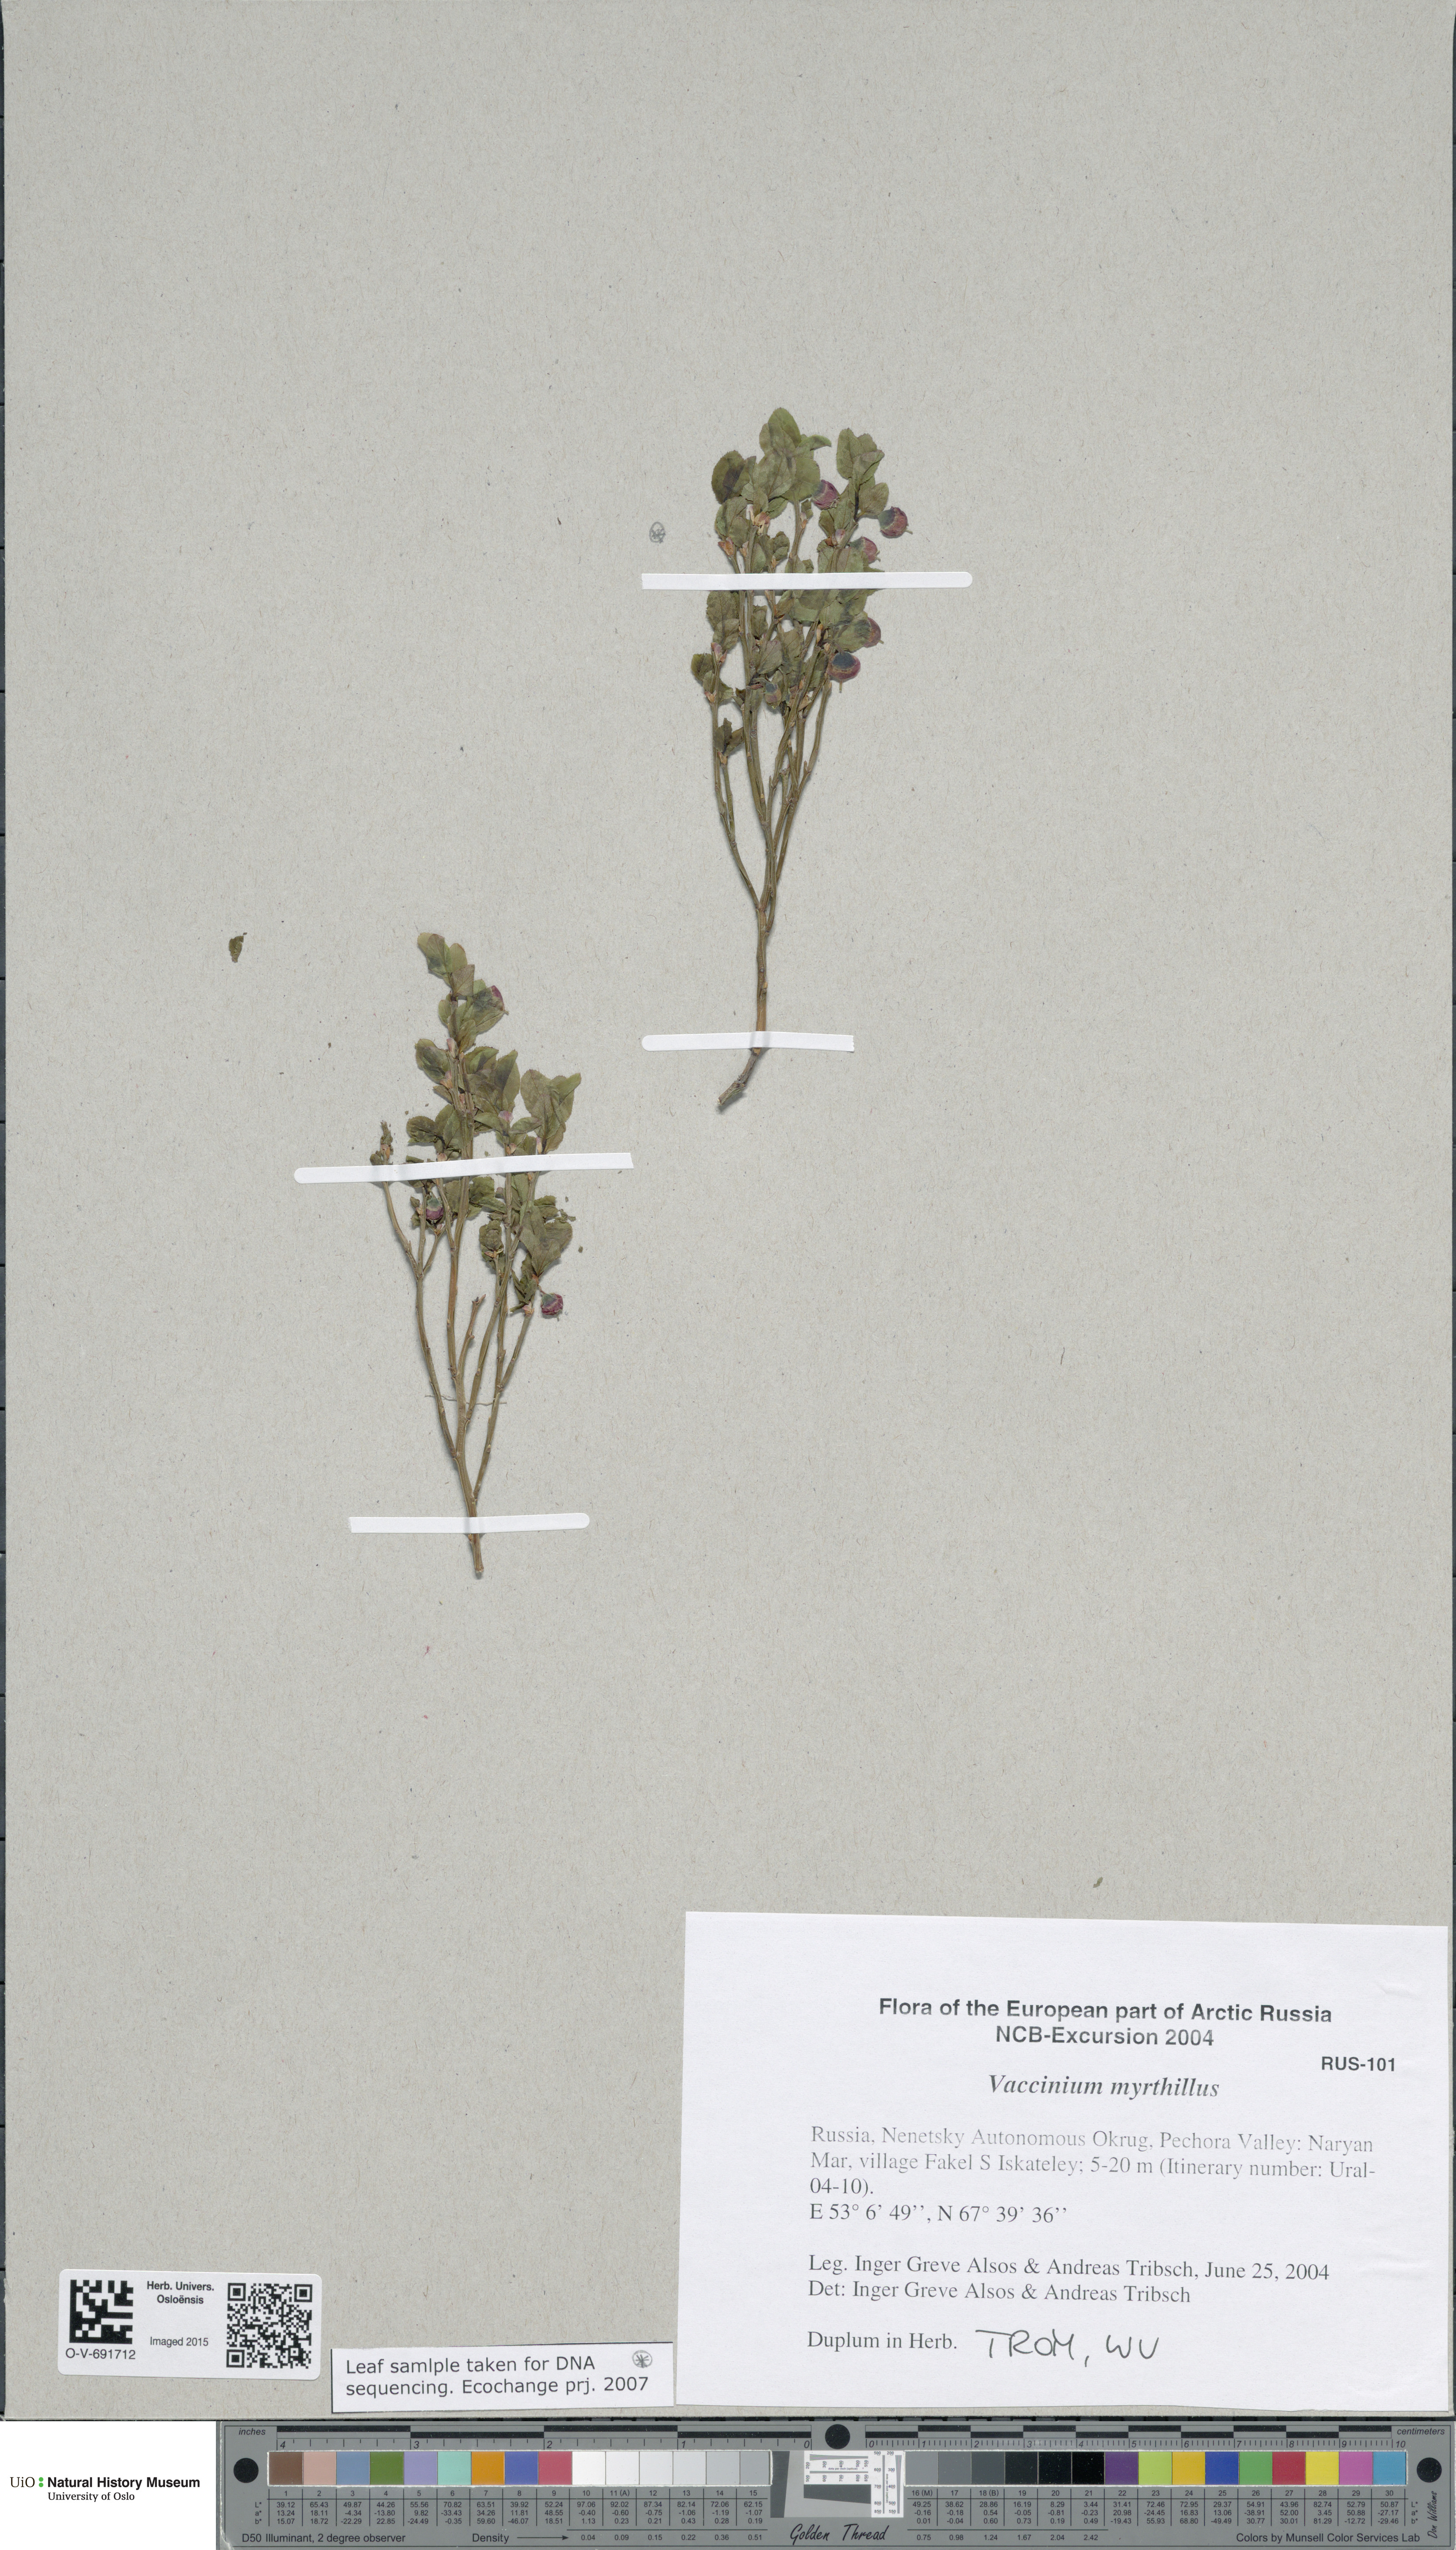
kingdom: Plantae
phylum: Tracheophyta
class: Magnoliopsida
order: Ericales
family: Ericaceae
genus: Vaccinium
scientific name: Vaccinium myrtillus
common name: Bilberry
